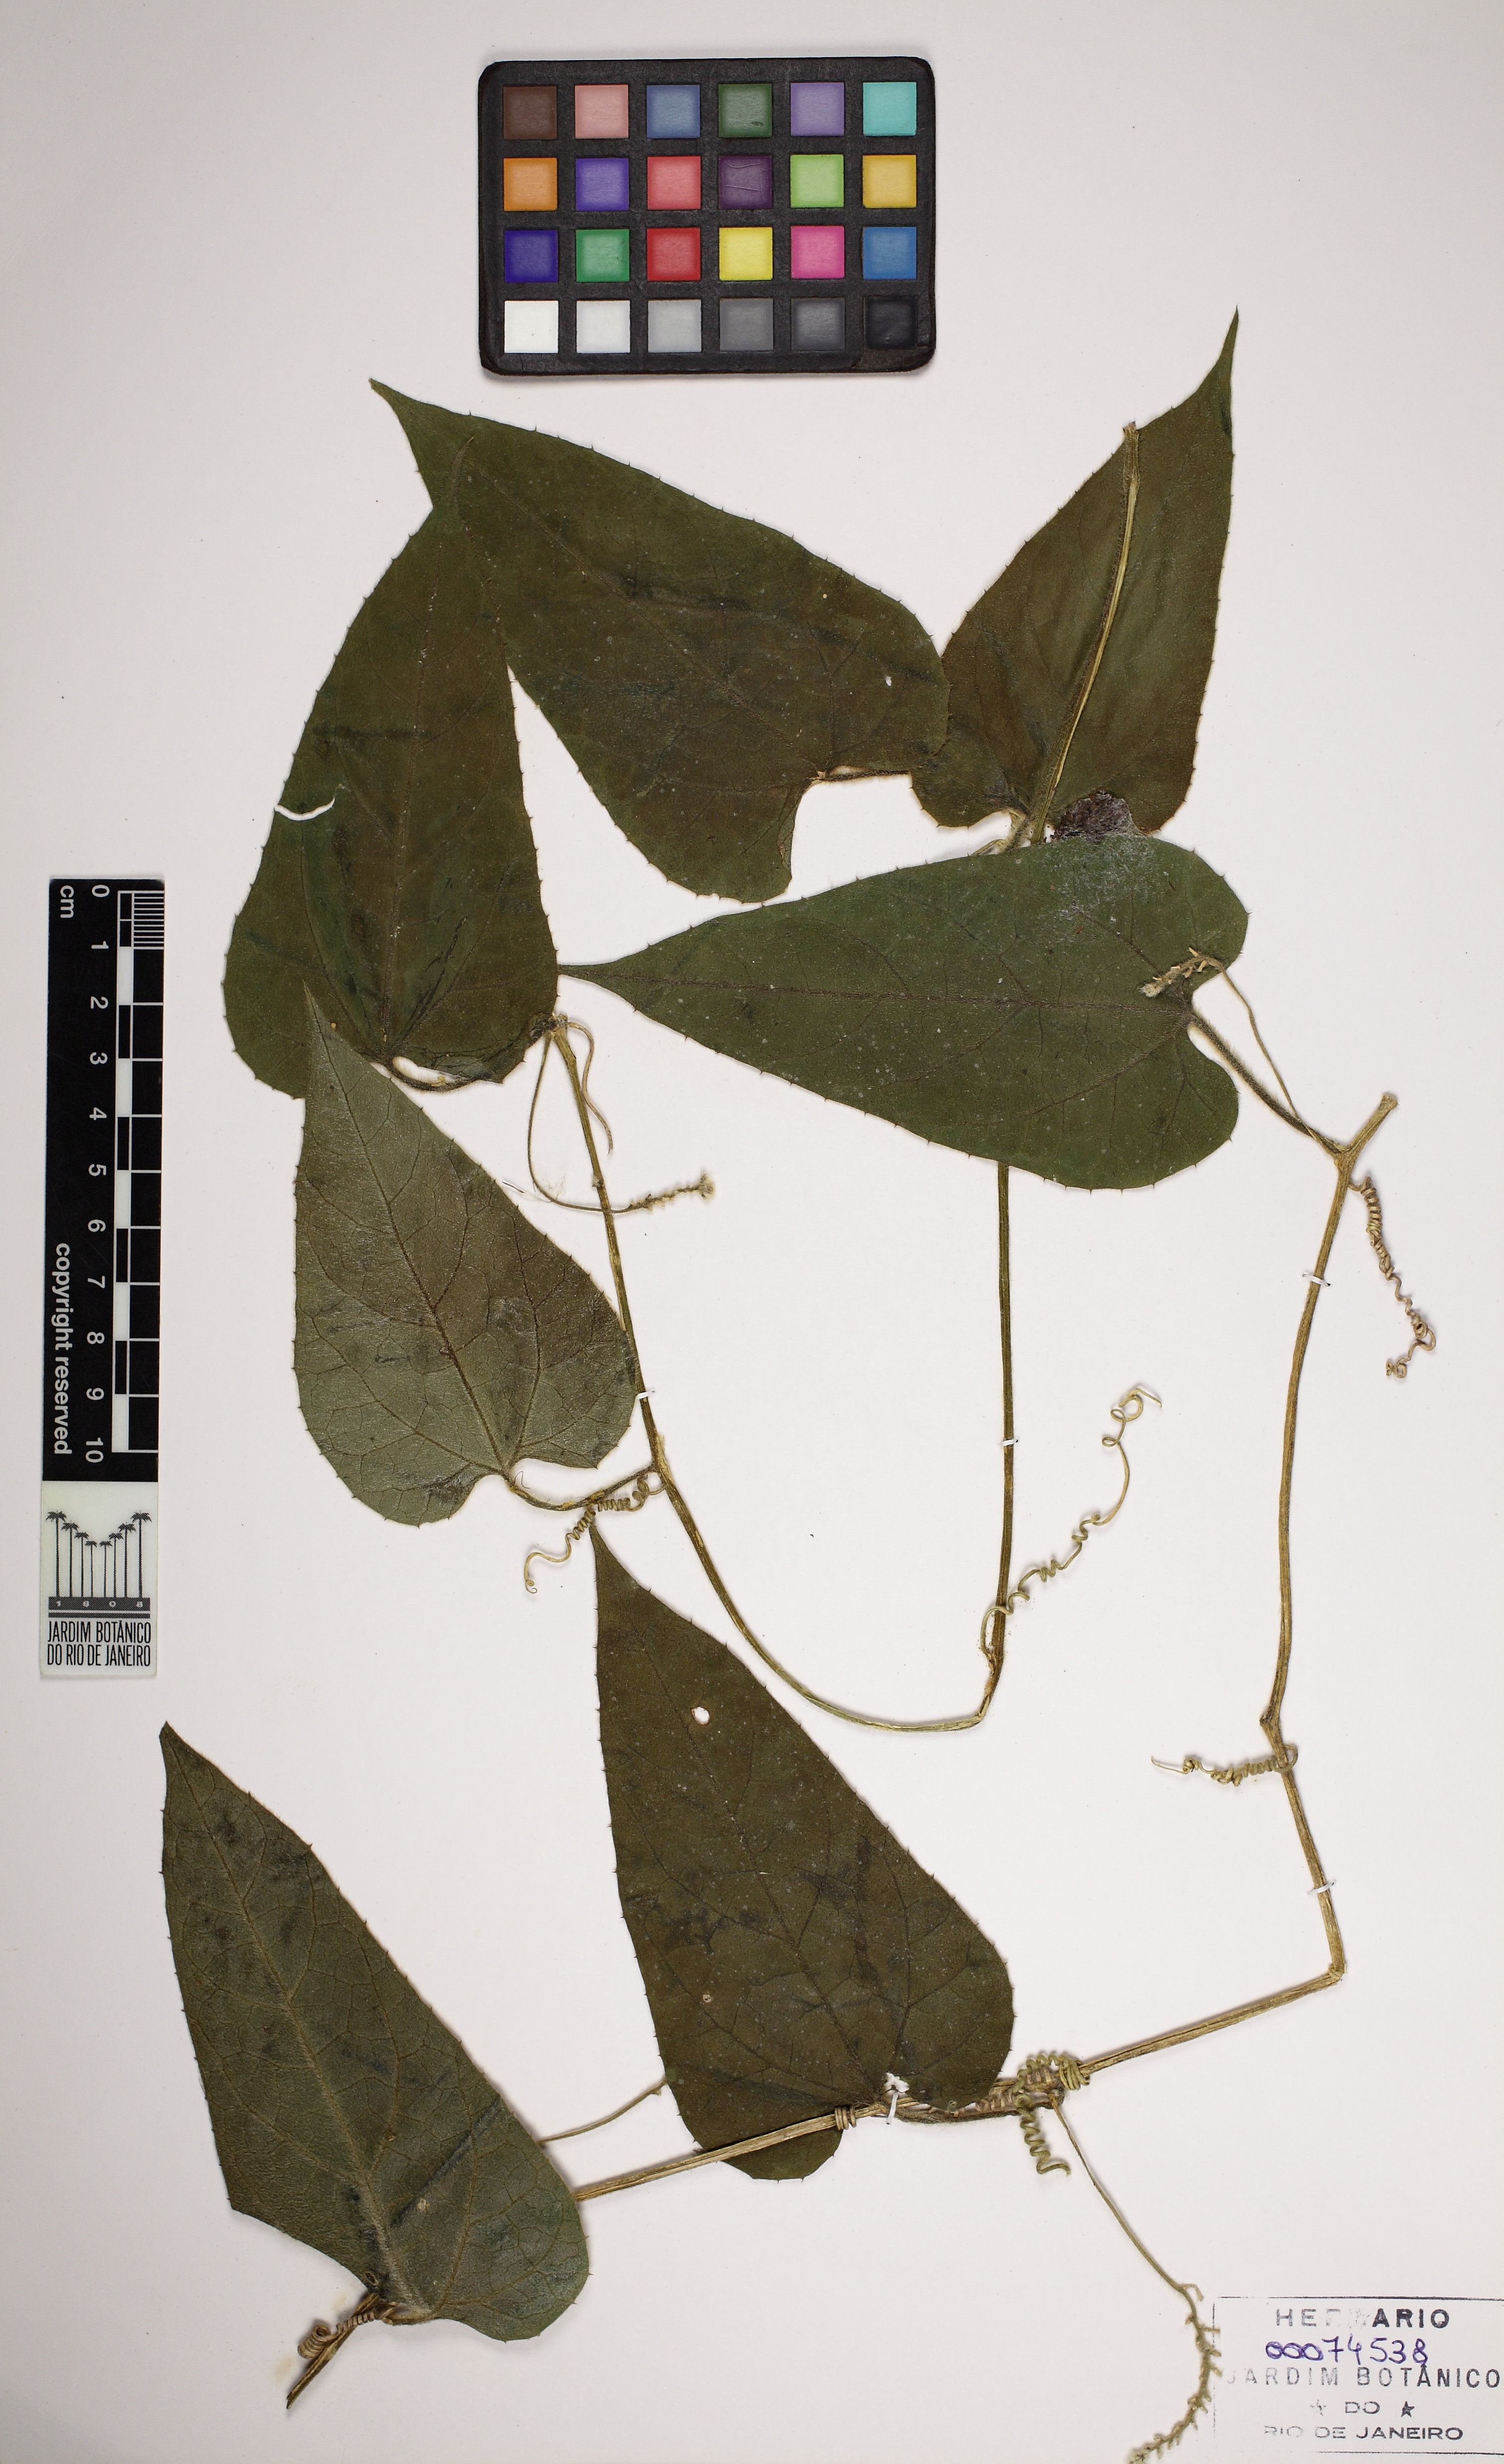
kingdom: Plantae
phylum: Tracheophyta
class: Magnoliopsida
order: Cucurbitales
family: Cucurbitaceae
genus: Apodanthera
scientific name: Apodanthera argentea
